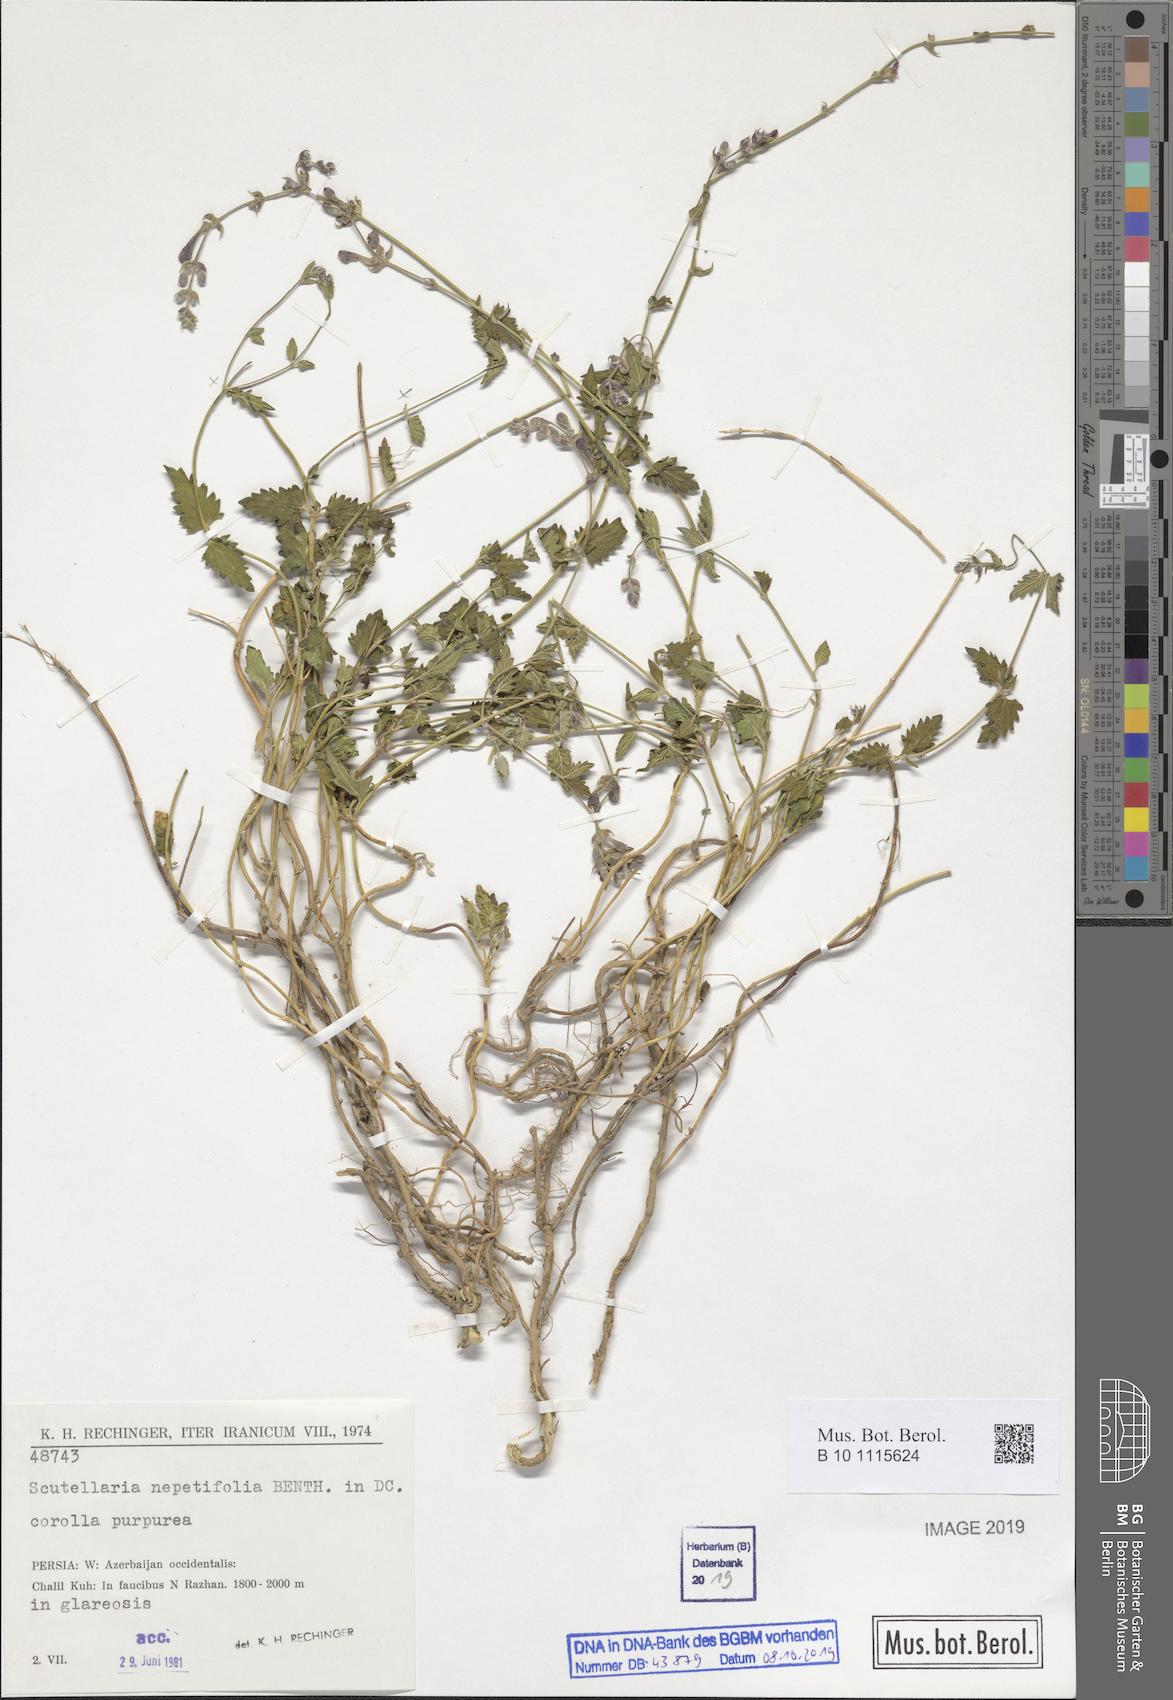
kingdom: Plantae
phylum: Tracheophyta
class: Magnoliopsida
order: Lamiales
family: Lamiaceae
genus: Scutellaria
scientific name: Scutellaria nepetifolia
